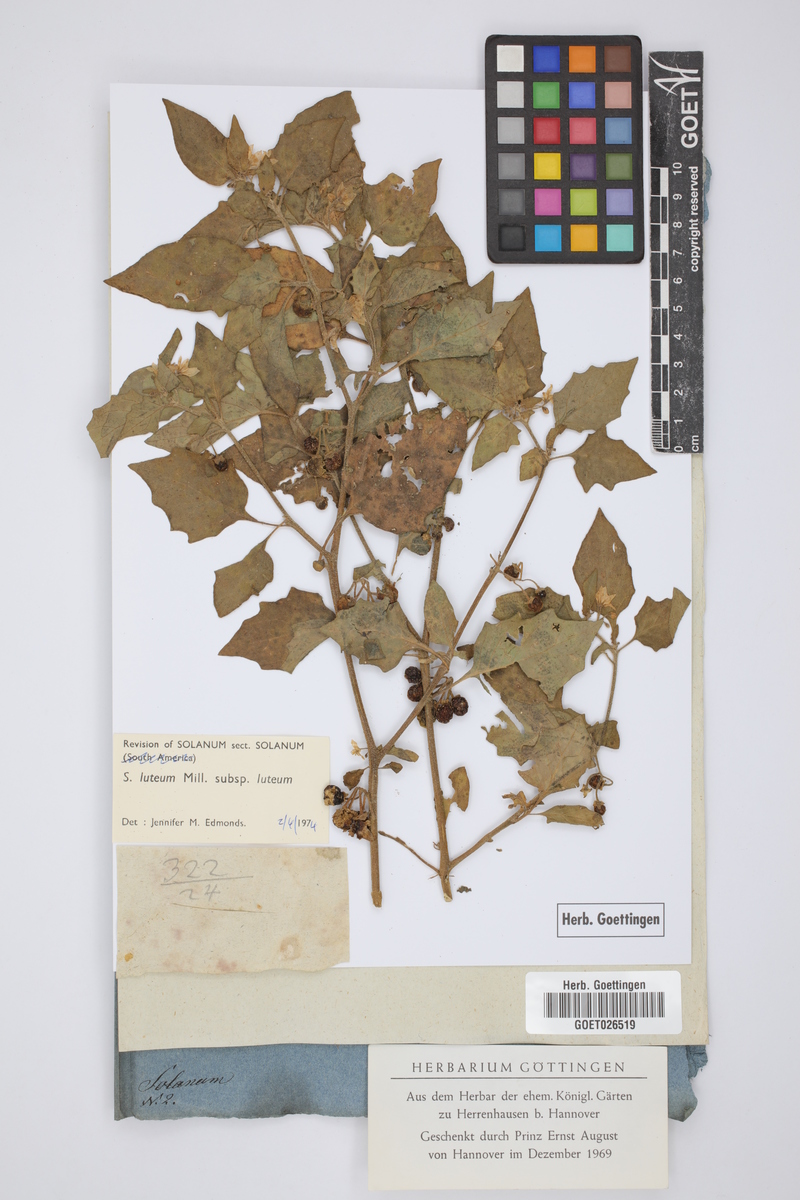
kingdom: Plantae
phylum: Tracheophyta
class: Magnoliopsida
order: Solanales
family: Solanaceae
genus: Solanum
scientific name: Solanum villosum
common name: Red nightshade
